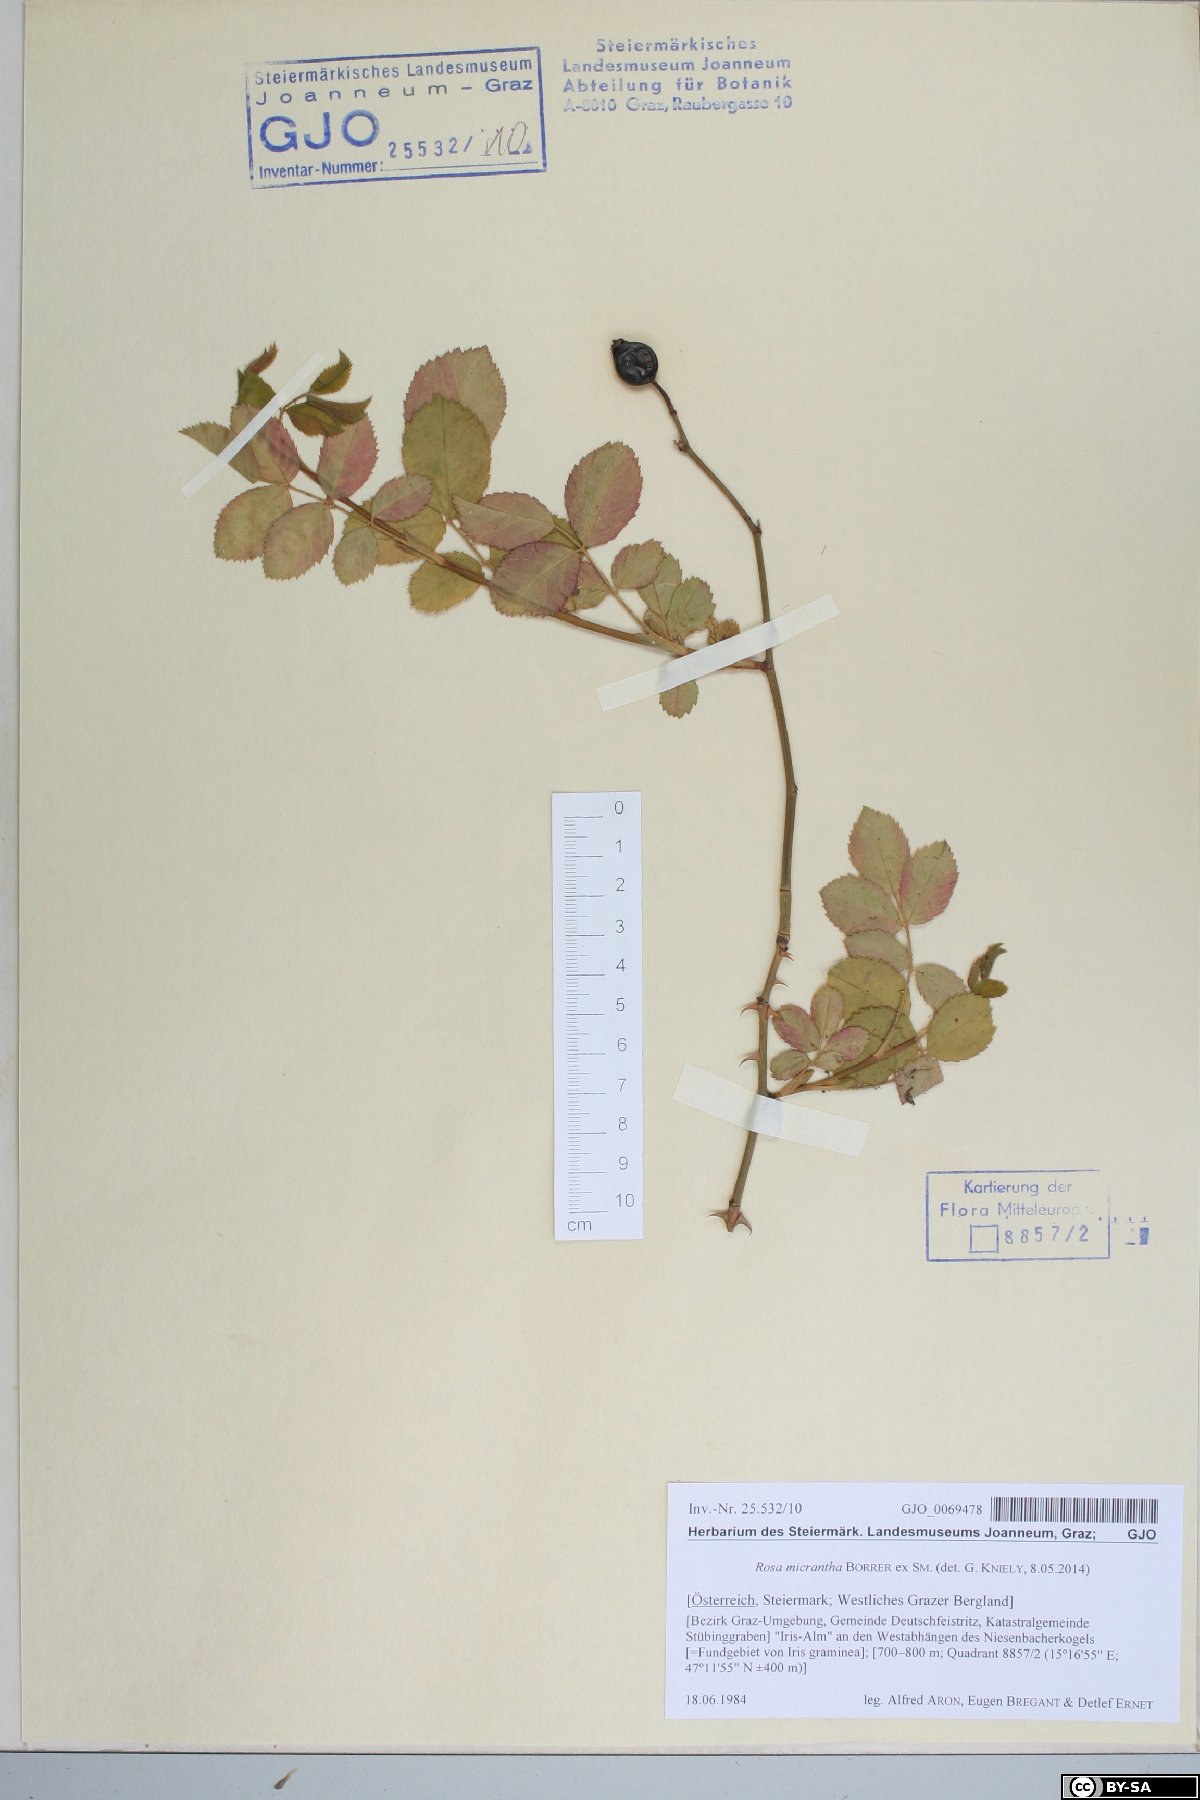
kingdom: Plantae
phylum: Tracheophyta
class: Magnoliopsida
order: Rosales
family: Rosaceae
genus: Rosa
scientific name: Rosa micrantha
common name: Small-flowered sweet-briar
